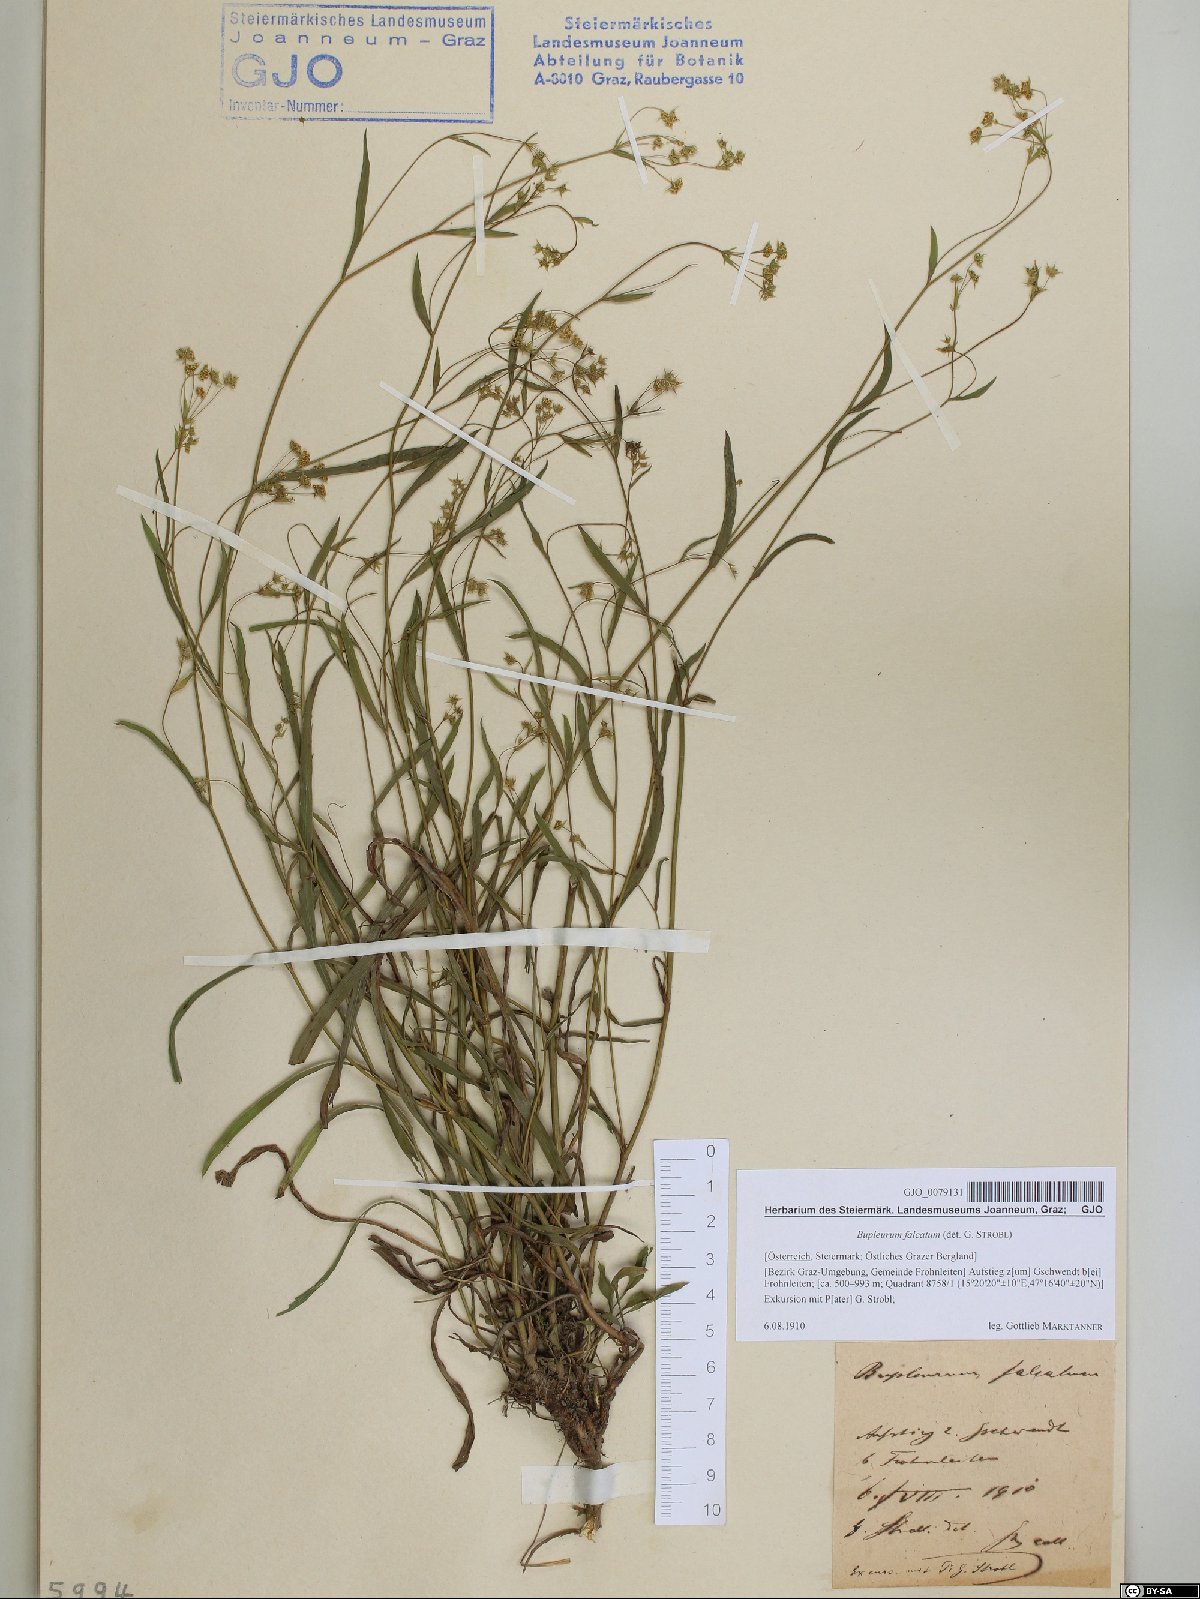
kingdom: Plantae
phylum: Tracheophyta
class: Magnoliopsida
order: Apiales
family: Apiaceae
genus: Bupleurum
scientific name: Bupleurum falcatum
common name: Sickle-leaved hare's-ear
